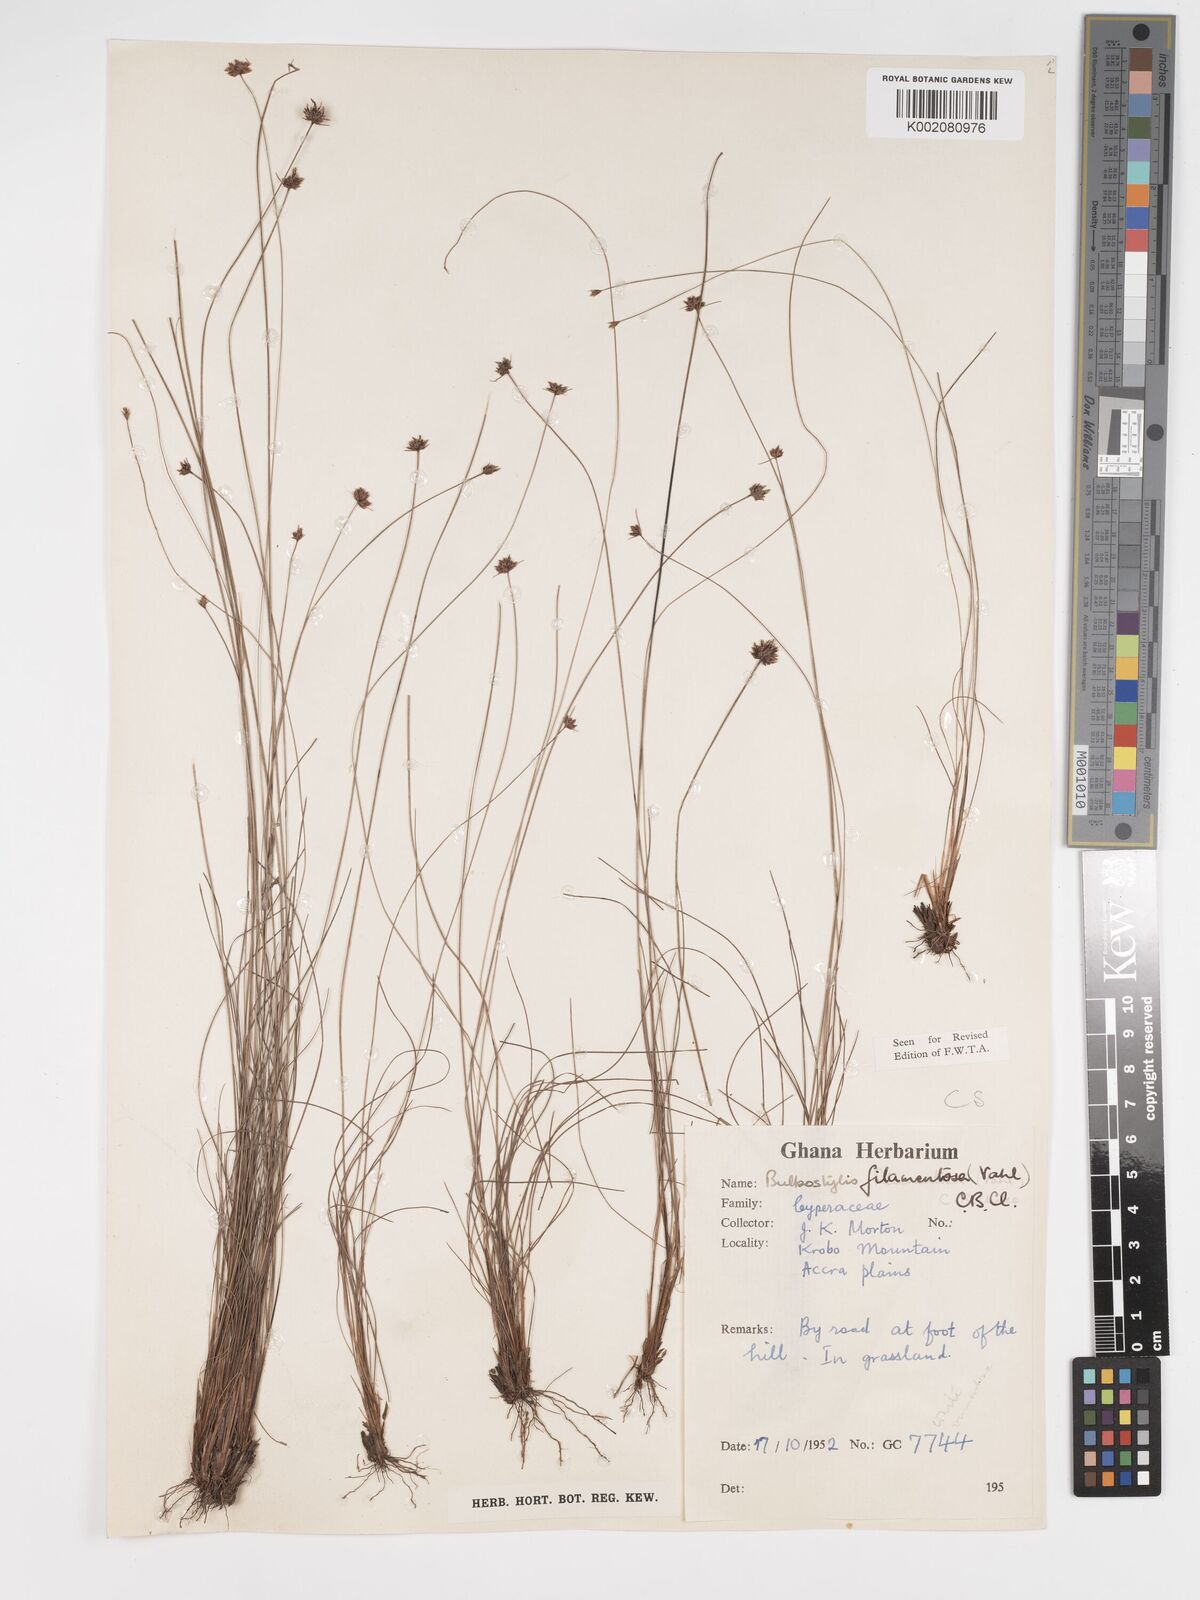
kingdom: Plantae
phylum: Tracheophyta
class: Liliopsida
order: Poales
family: Cyperaceae
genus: Bulbostylis
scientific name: Bulbostylis filamentosa
